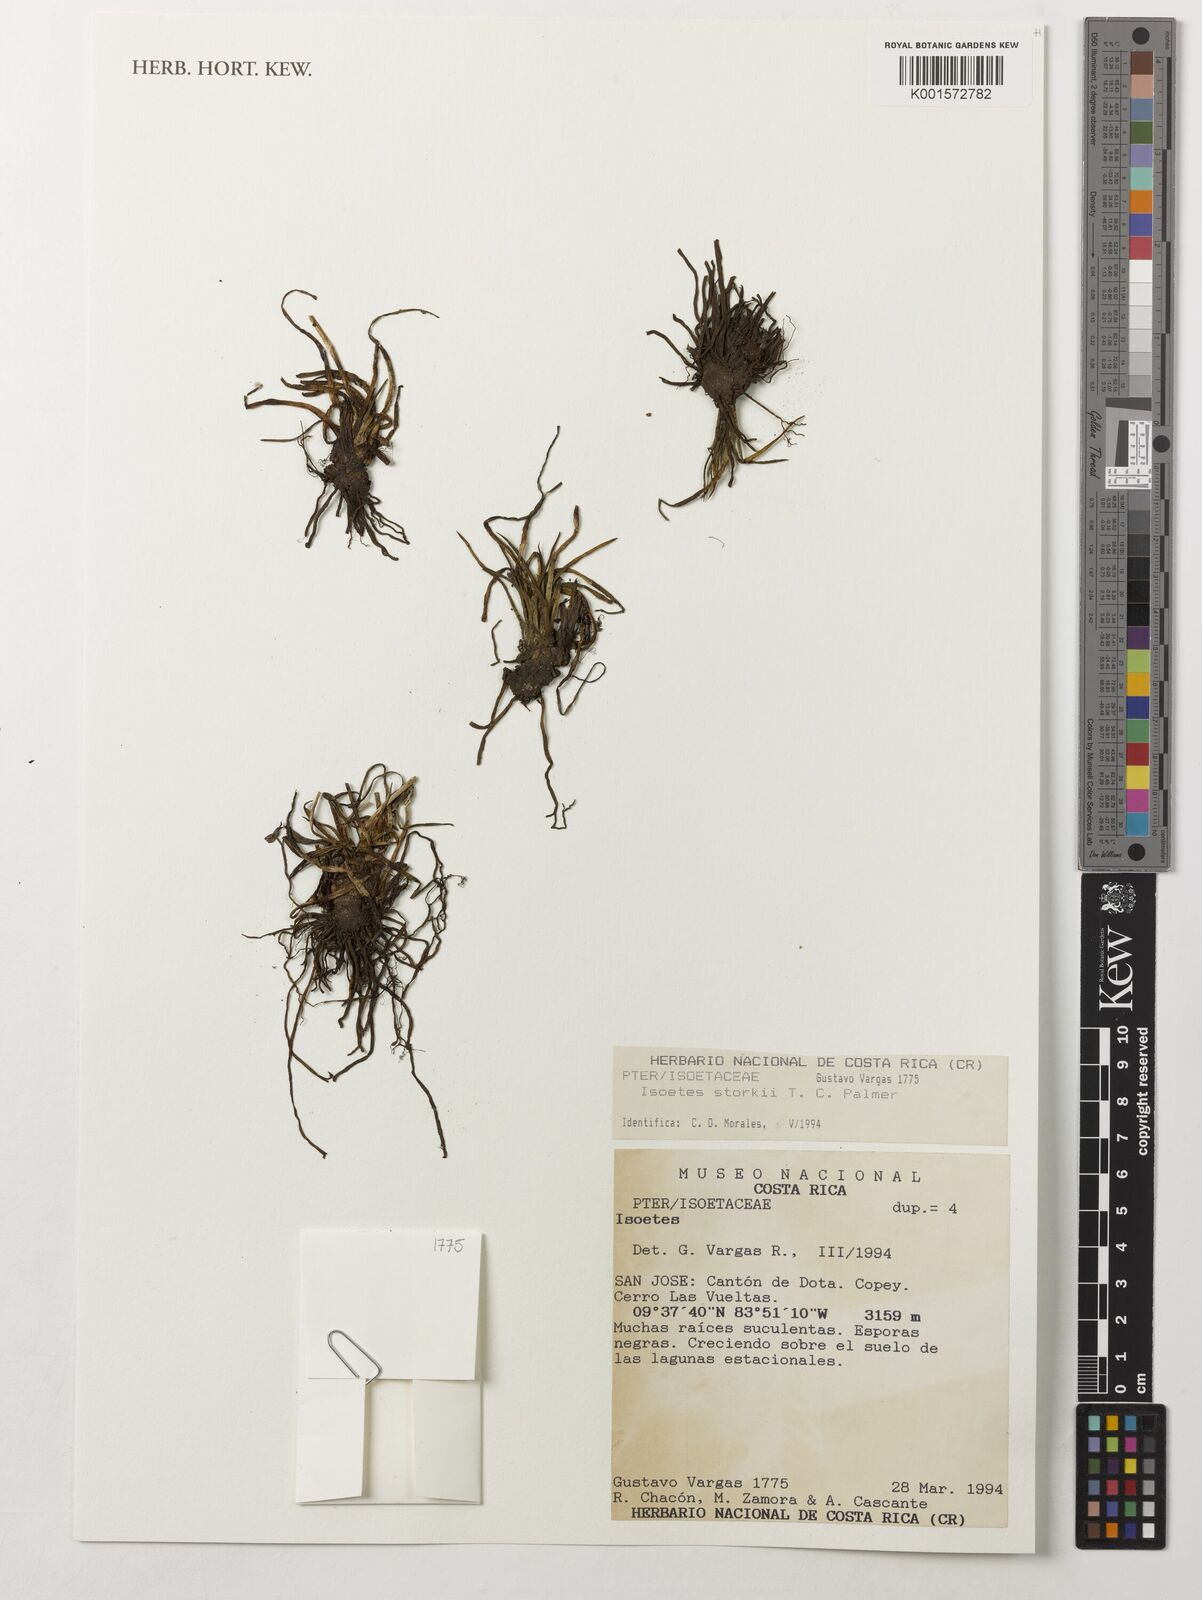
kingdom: Plantae
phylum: Tracheophyta
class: Lycopodiopsida
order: Isoetales
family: Isoetaceae
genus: Isoetes
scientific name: Isoetes
